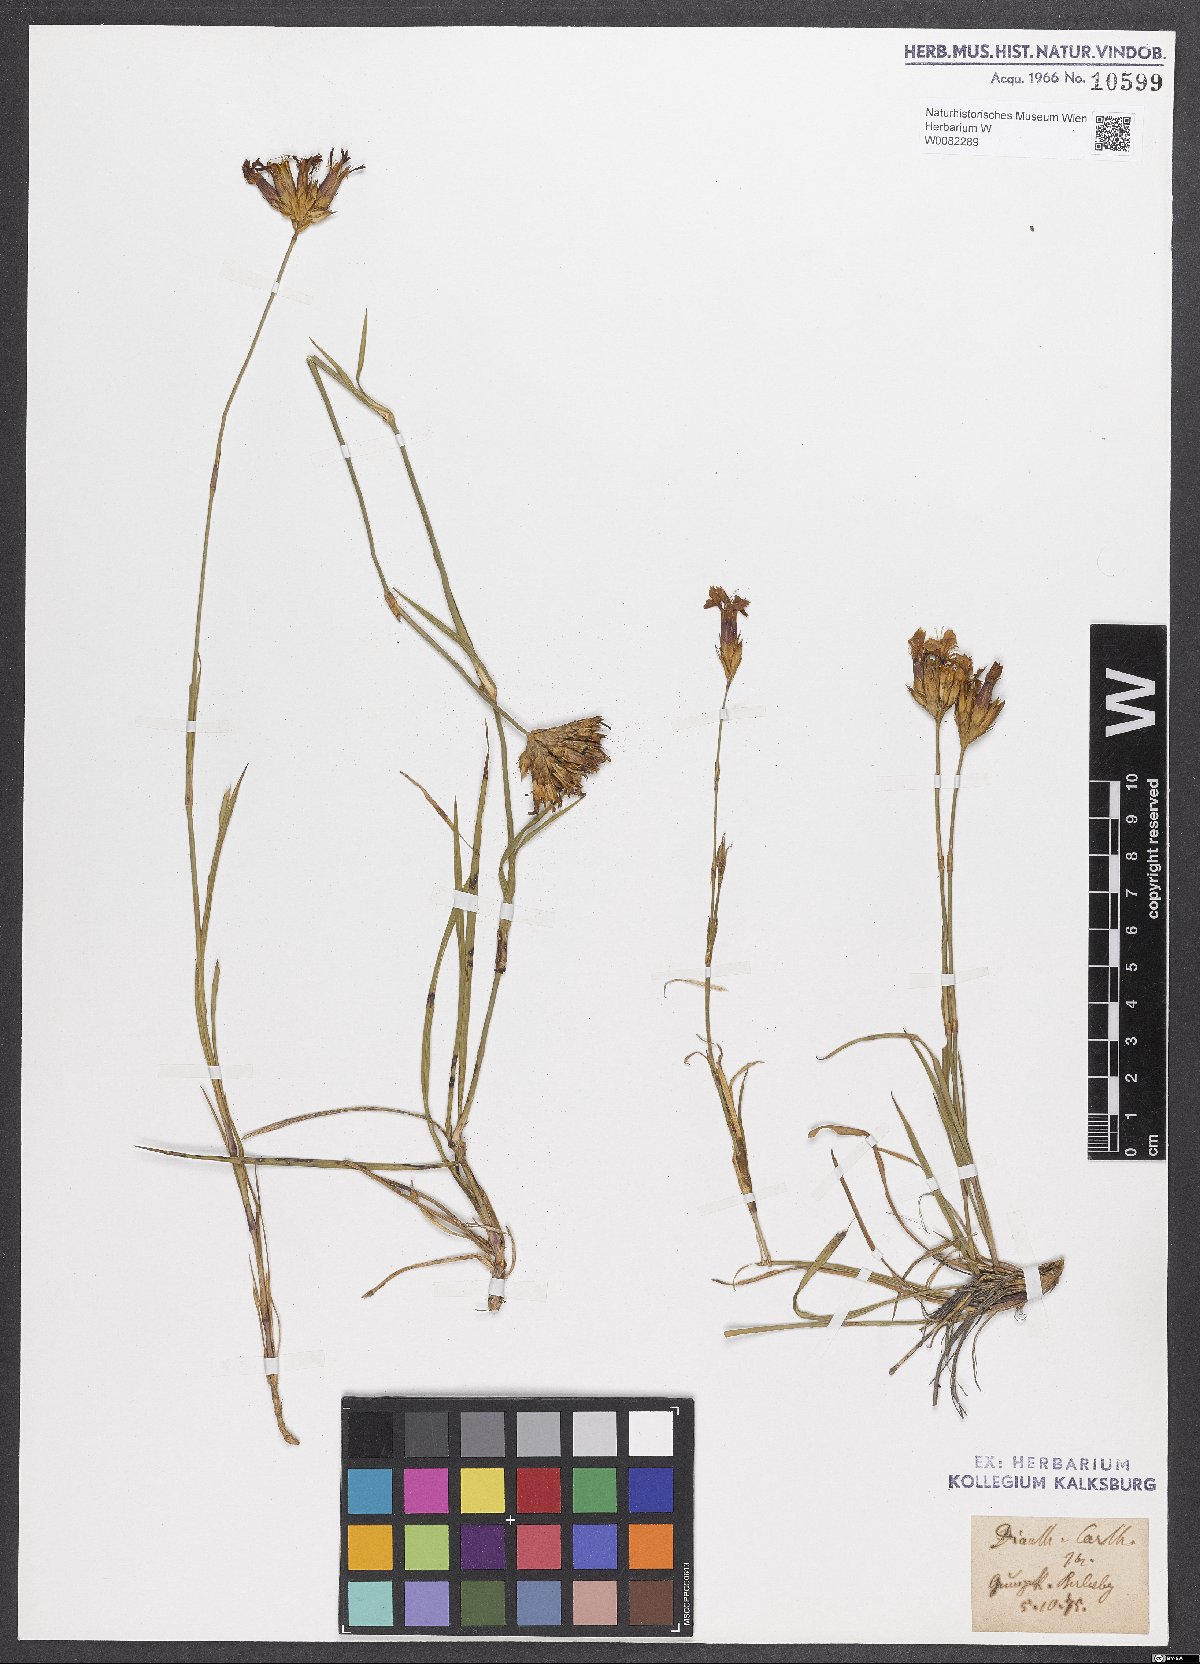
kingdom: Plantae
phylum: Tracheophyta
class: Magnoliopsida
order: Caryophyllales
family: Caryophyllaceae
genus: Dianthus
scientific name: Dianthus carthusianorum
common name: Carthusian pink
